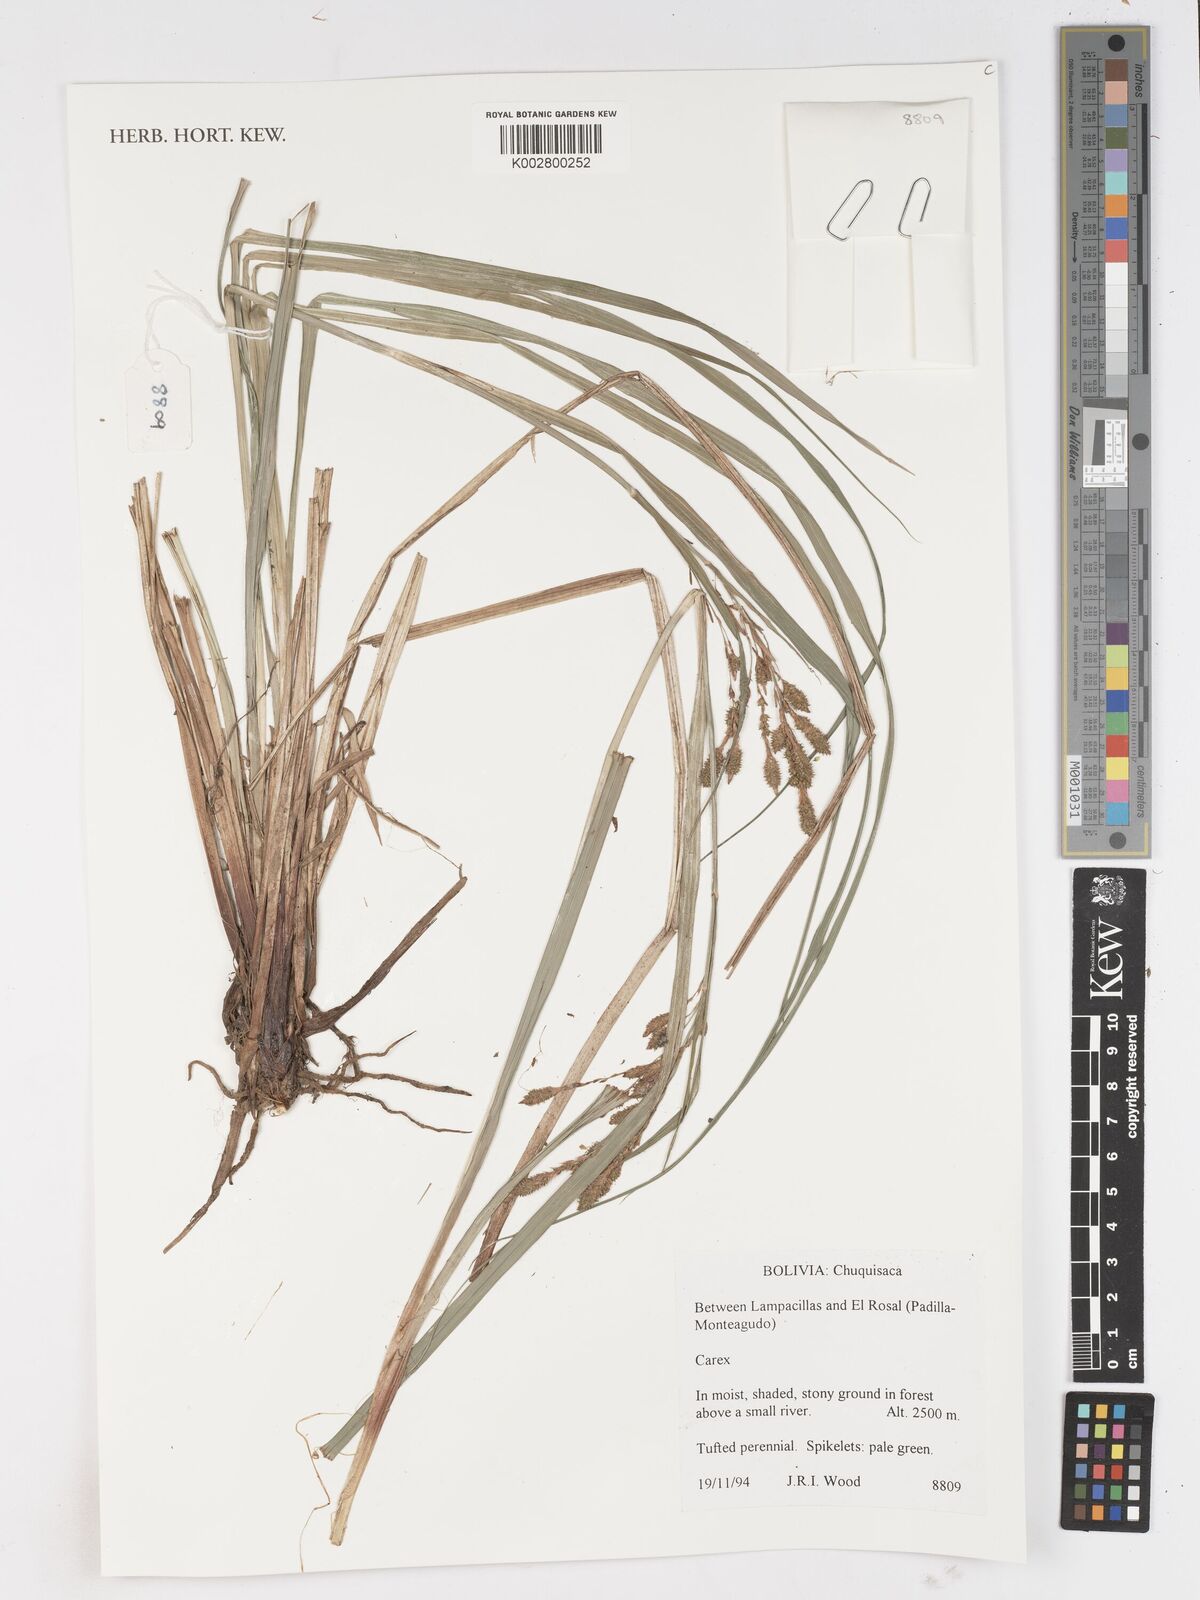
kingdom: Plantae
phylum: Tracheophyta
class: Liliopsida
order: Poales
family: Cyperaceae
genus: Carex
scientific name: Carex
